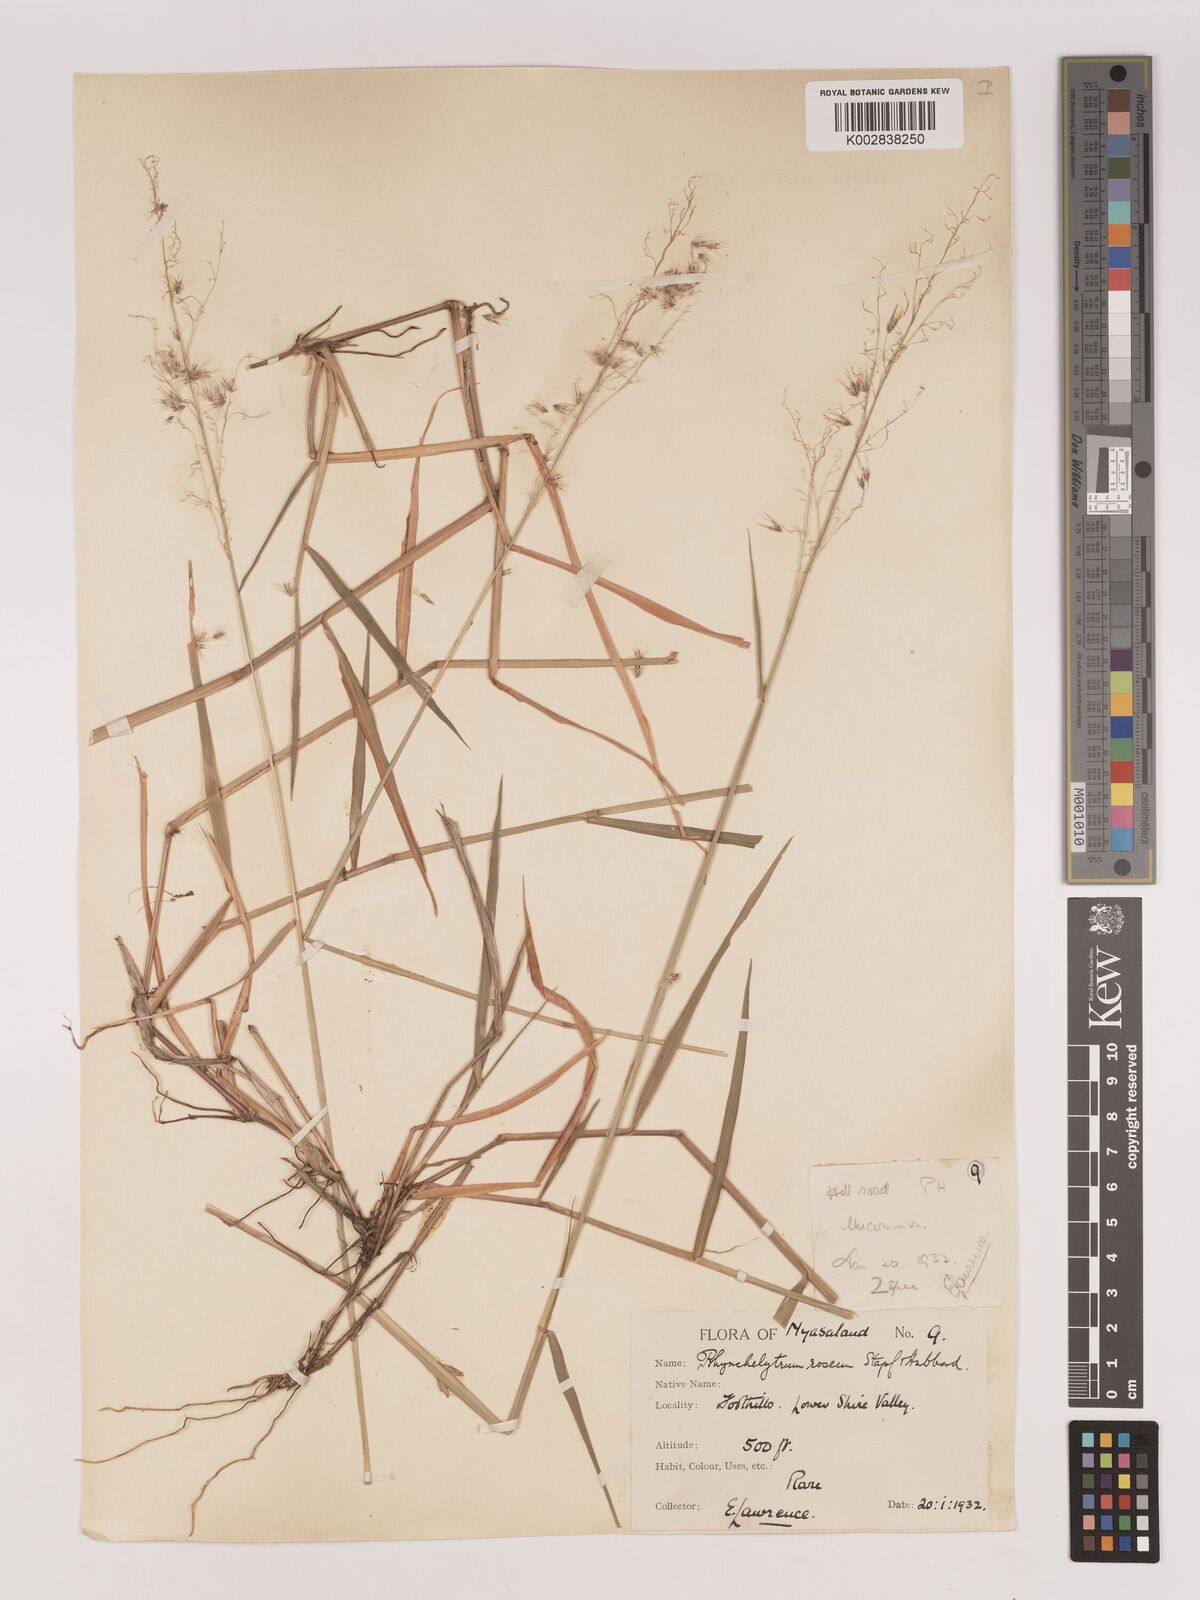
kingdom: Plantae
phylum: Tracheophyta
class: Liliopsida
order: Poales
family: Poaceae
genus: Melinis
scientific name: Melinis repens
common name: Rose natal grass
